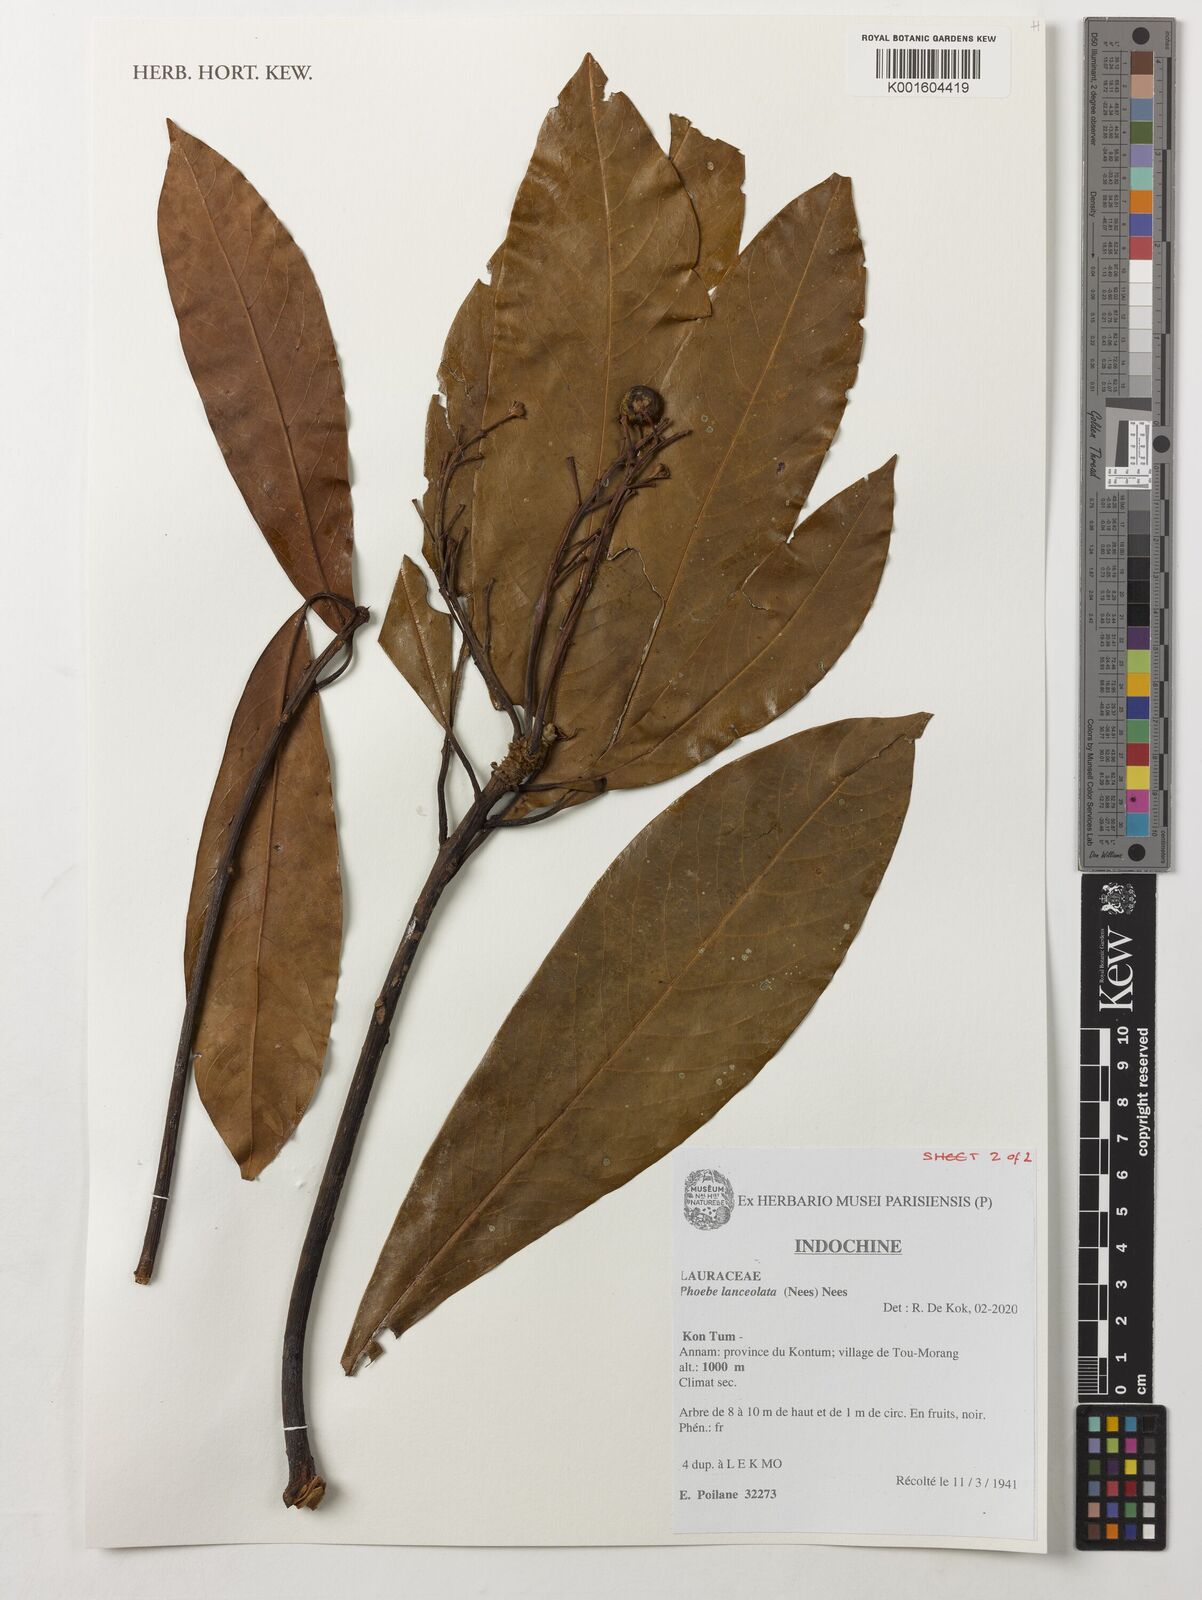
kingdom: Plantae
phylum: Tracheophyta
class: Magnoliopsida
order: Laurales
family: Lauraceae
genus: Phoebe
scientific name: Phoebe lanceolata
